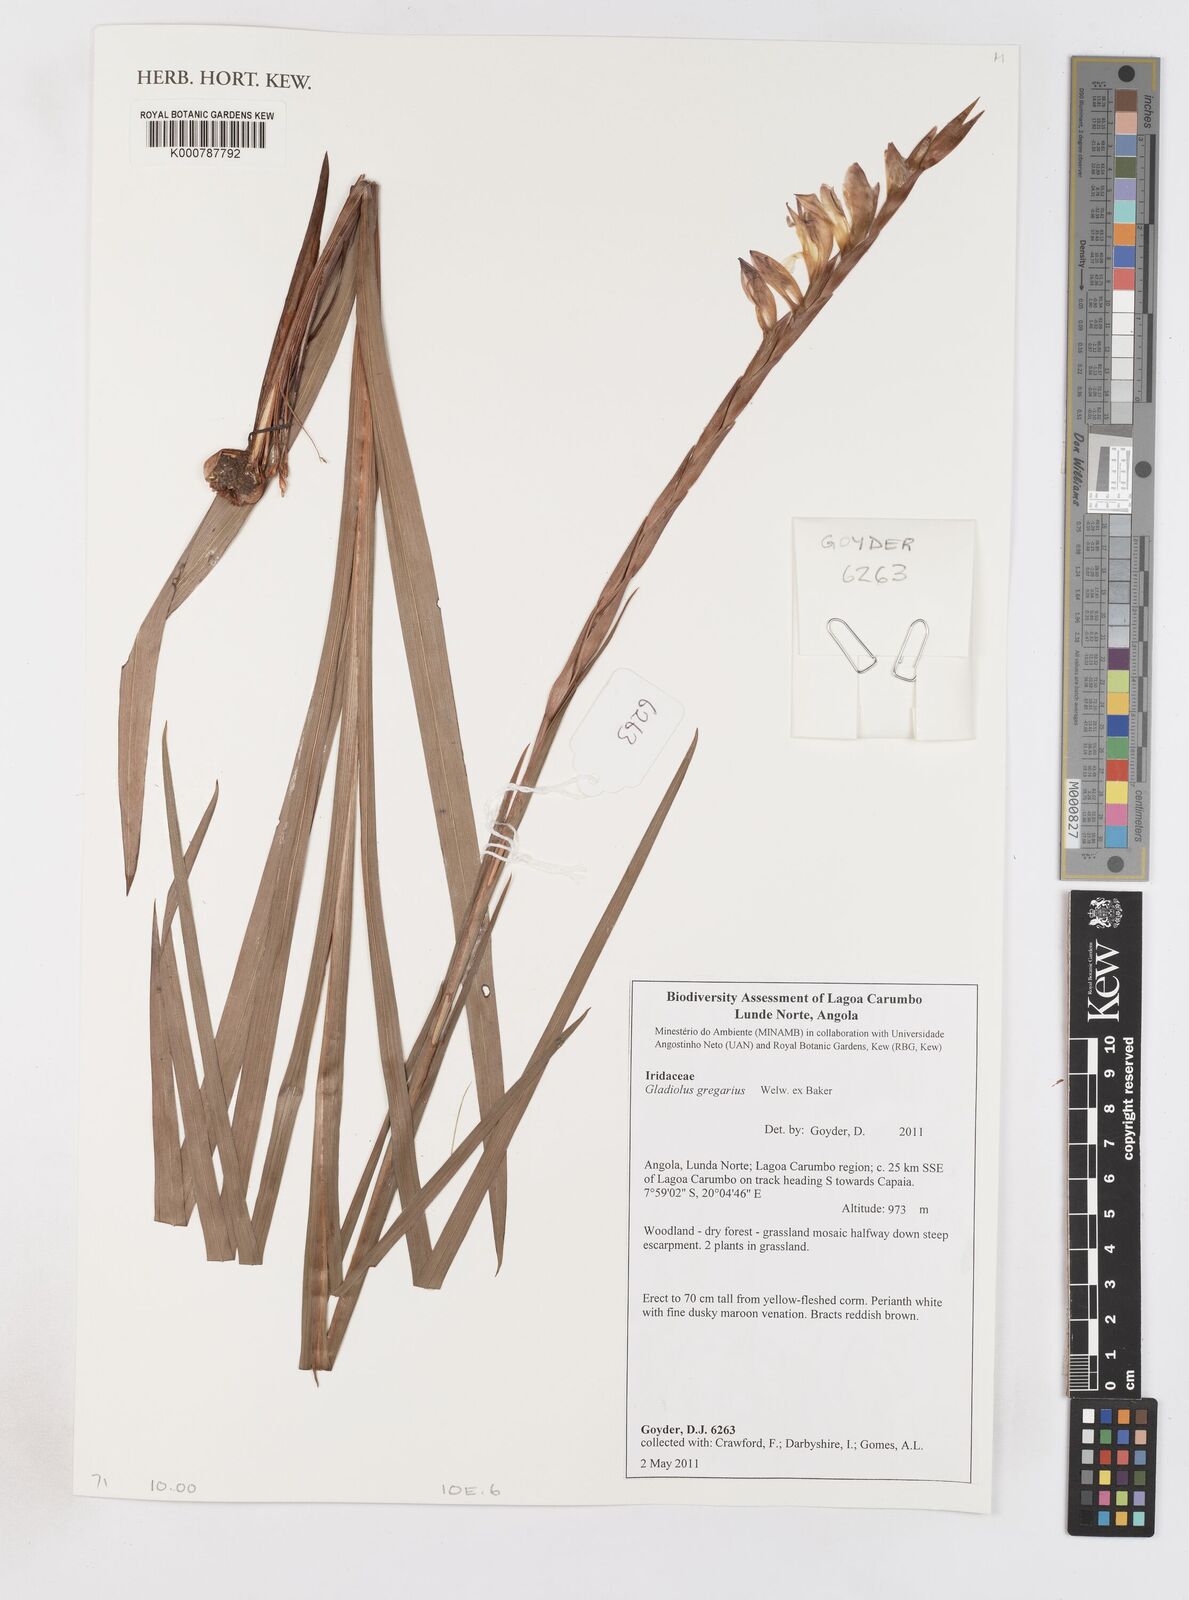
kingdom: Plantae
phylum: Tracheophyta
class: Liliopsida
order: Asparagales
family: Iridaceae
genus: Gladiolus
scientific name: Gladiolus gregarius
